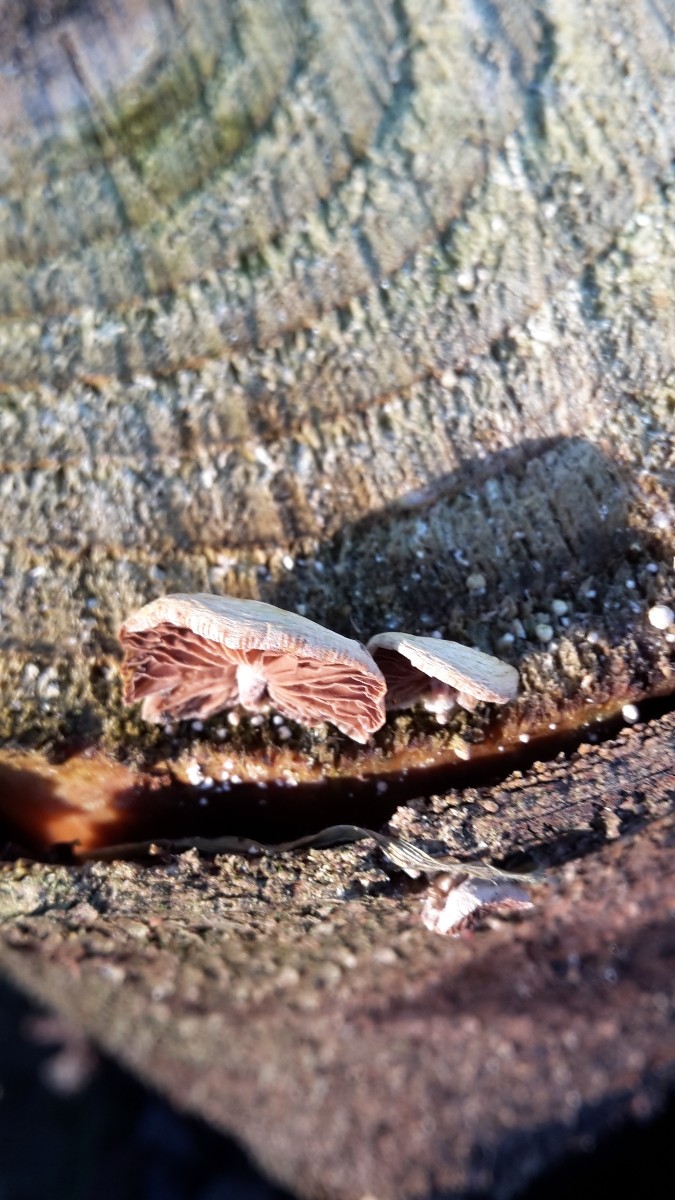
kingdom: Fungi
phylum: Basidiomycota
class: Agaricomycetes
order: Agaricales
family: Strophariaceae
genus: Deconica
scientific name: Deconica horizontalis
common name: ved-stråhat
